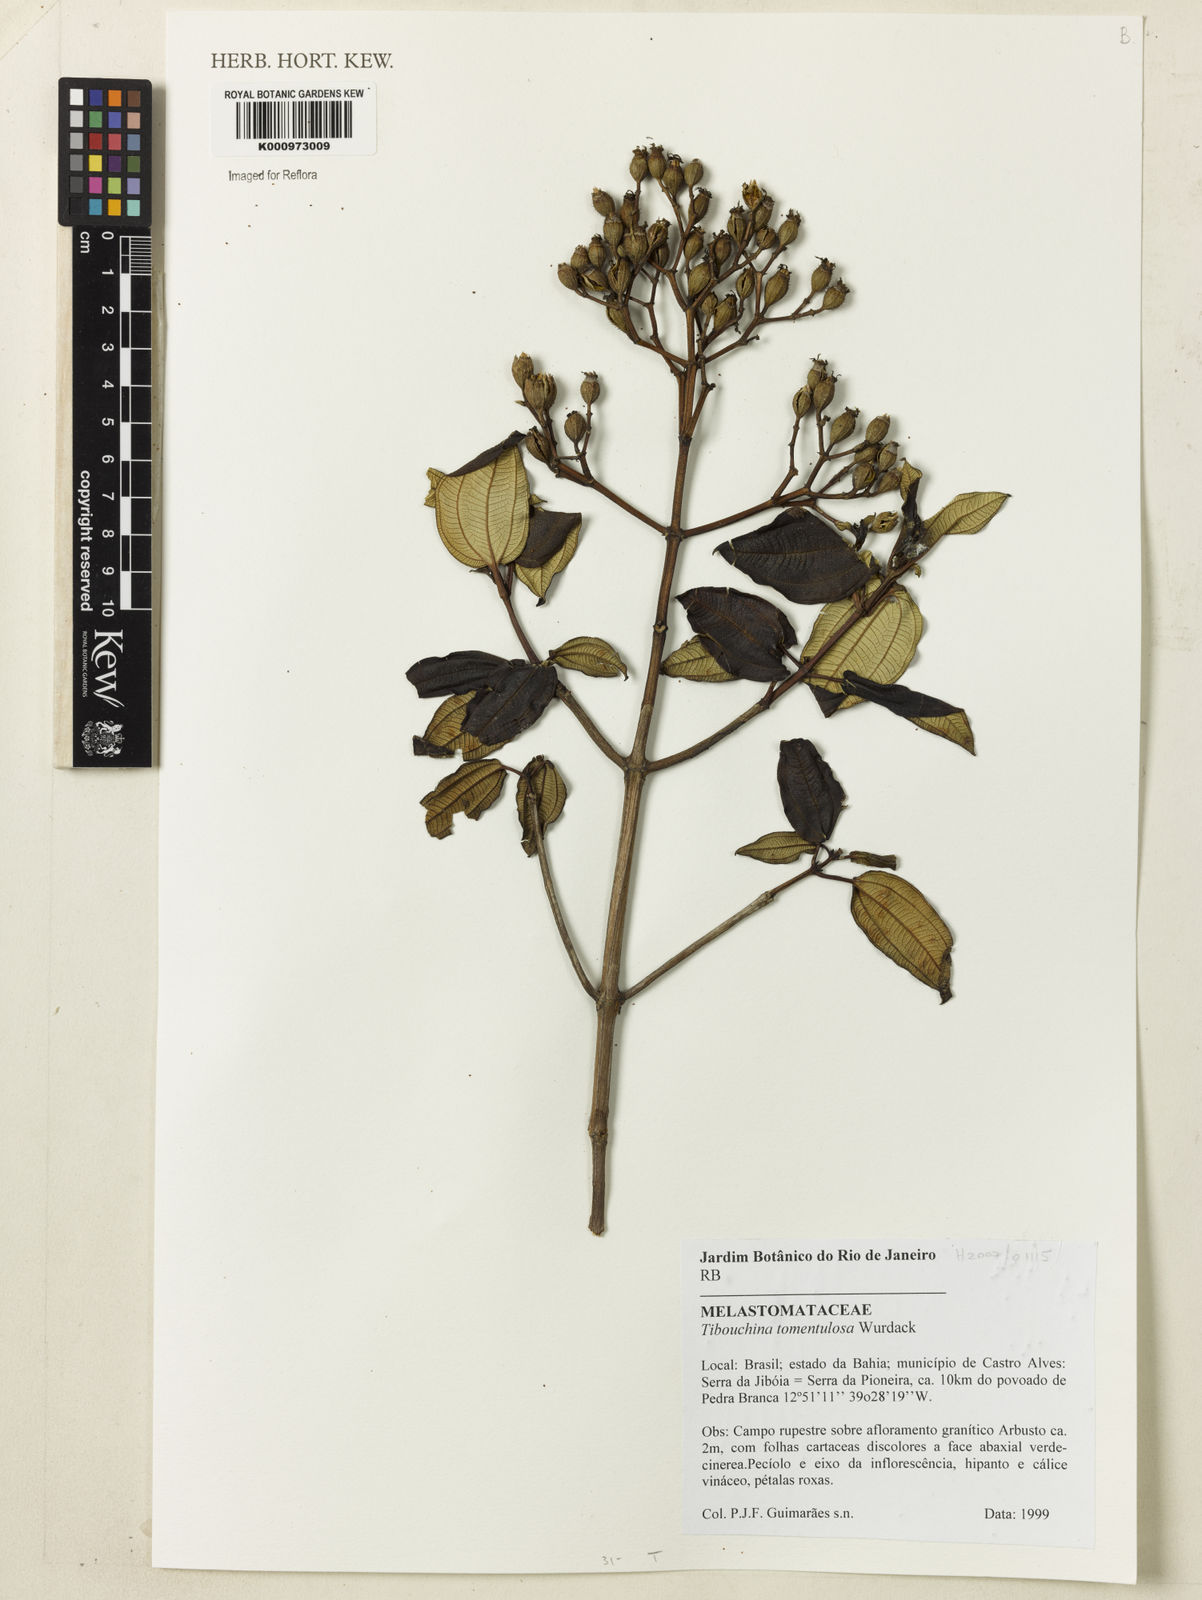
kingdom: Plantae
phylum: Tracheophyta
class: Magnoliopsida
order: Myrtales
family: Melastomataceae
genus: Pleroma
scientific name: Pleroma tomentulosum
